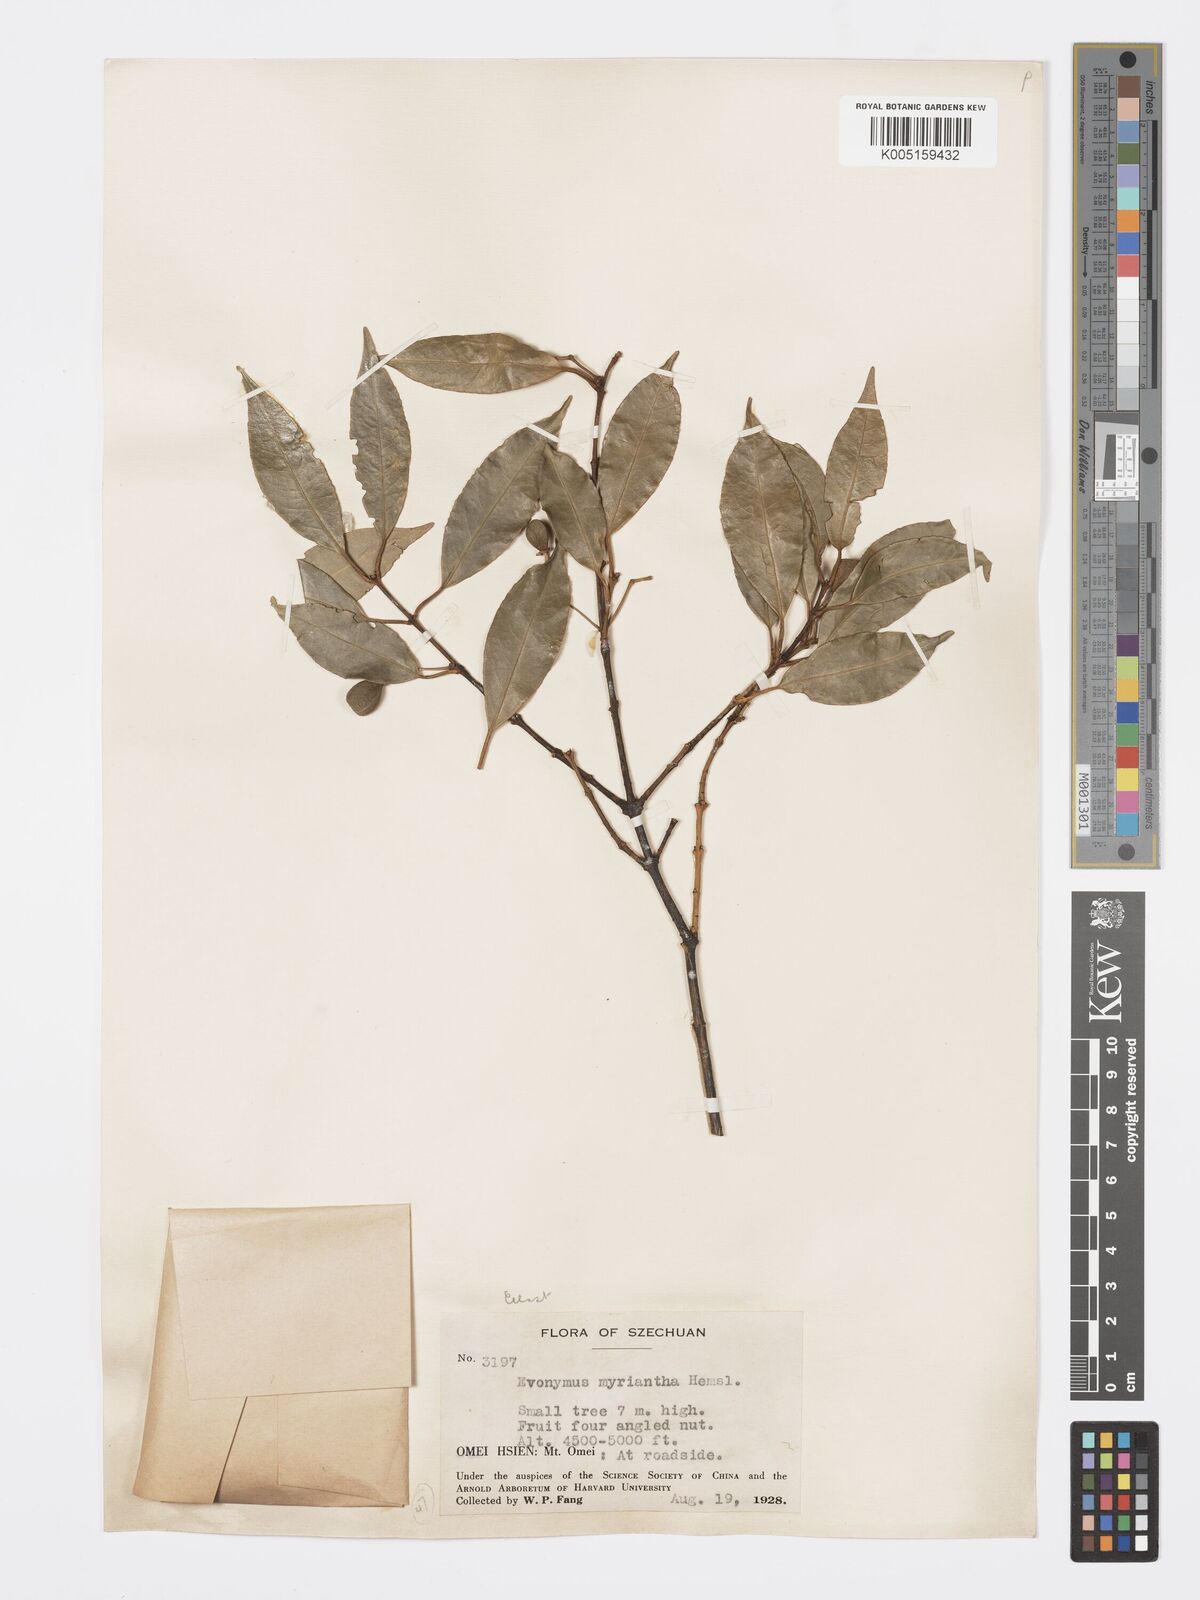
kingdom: Plantae
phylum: Tracheophyta
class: Magnoliopsida
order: Celastrales
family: Celastraceae
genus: Euonymus
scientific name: Euonymus myrianthus
